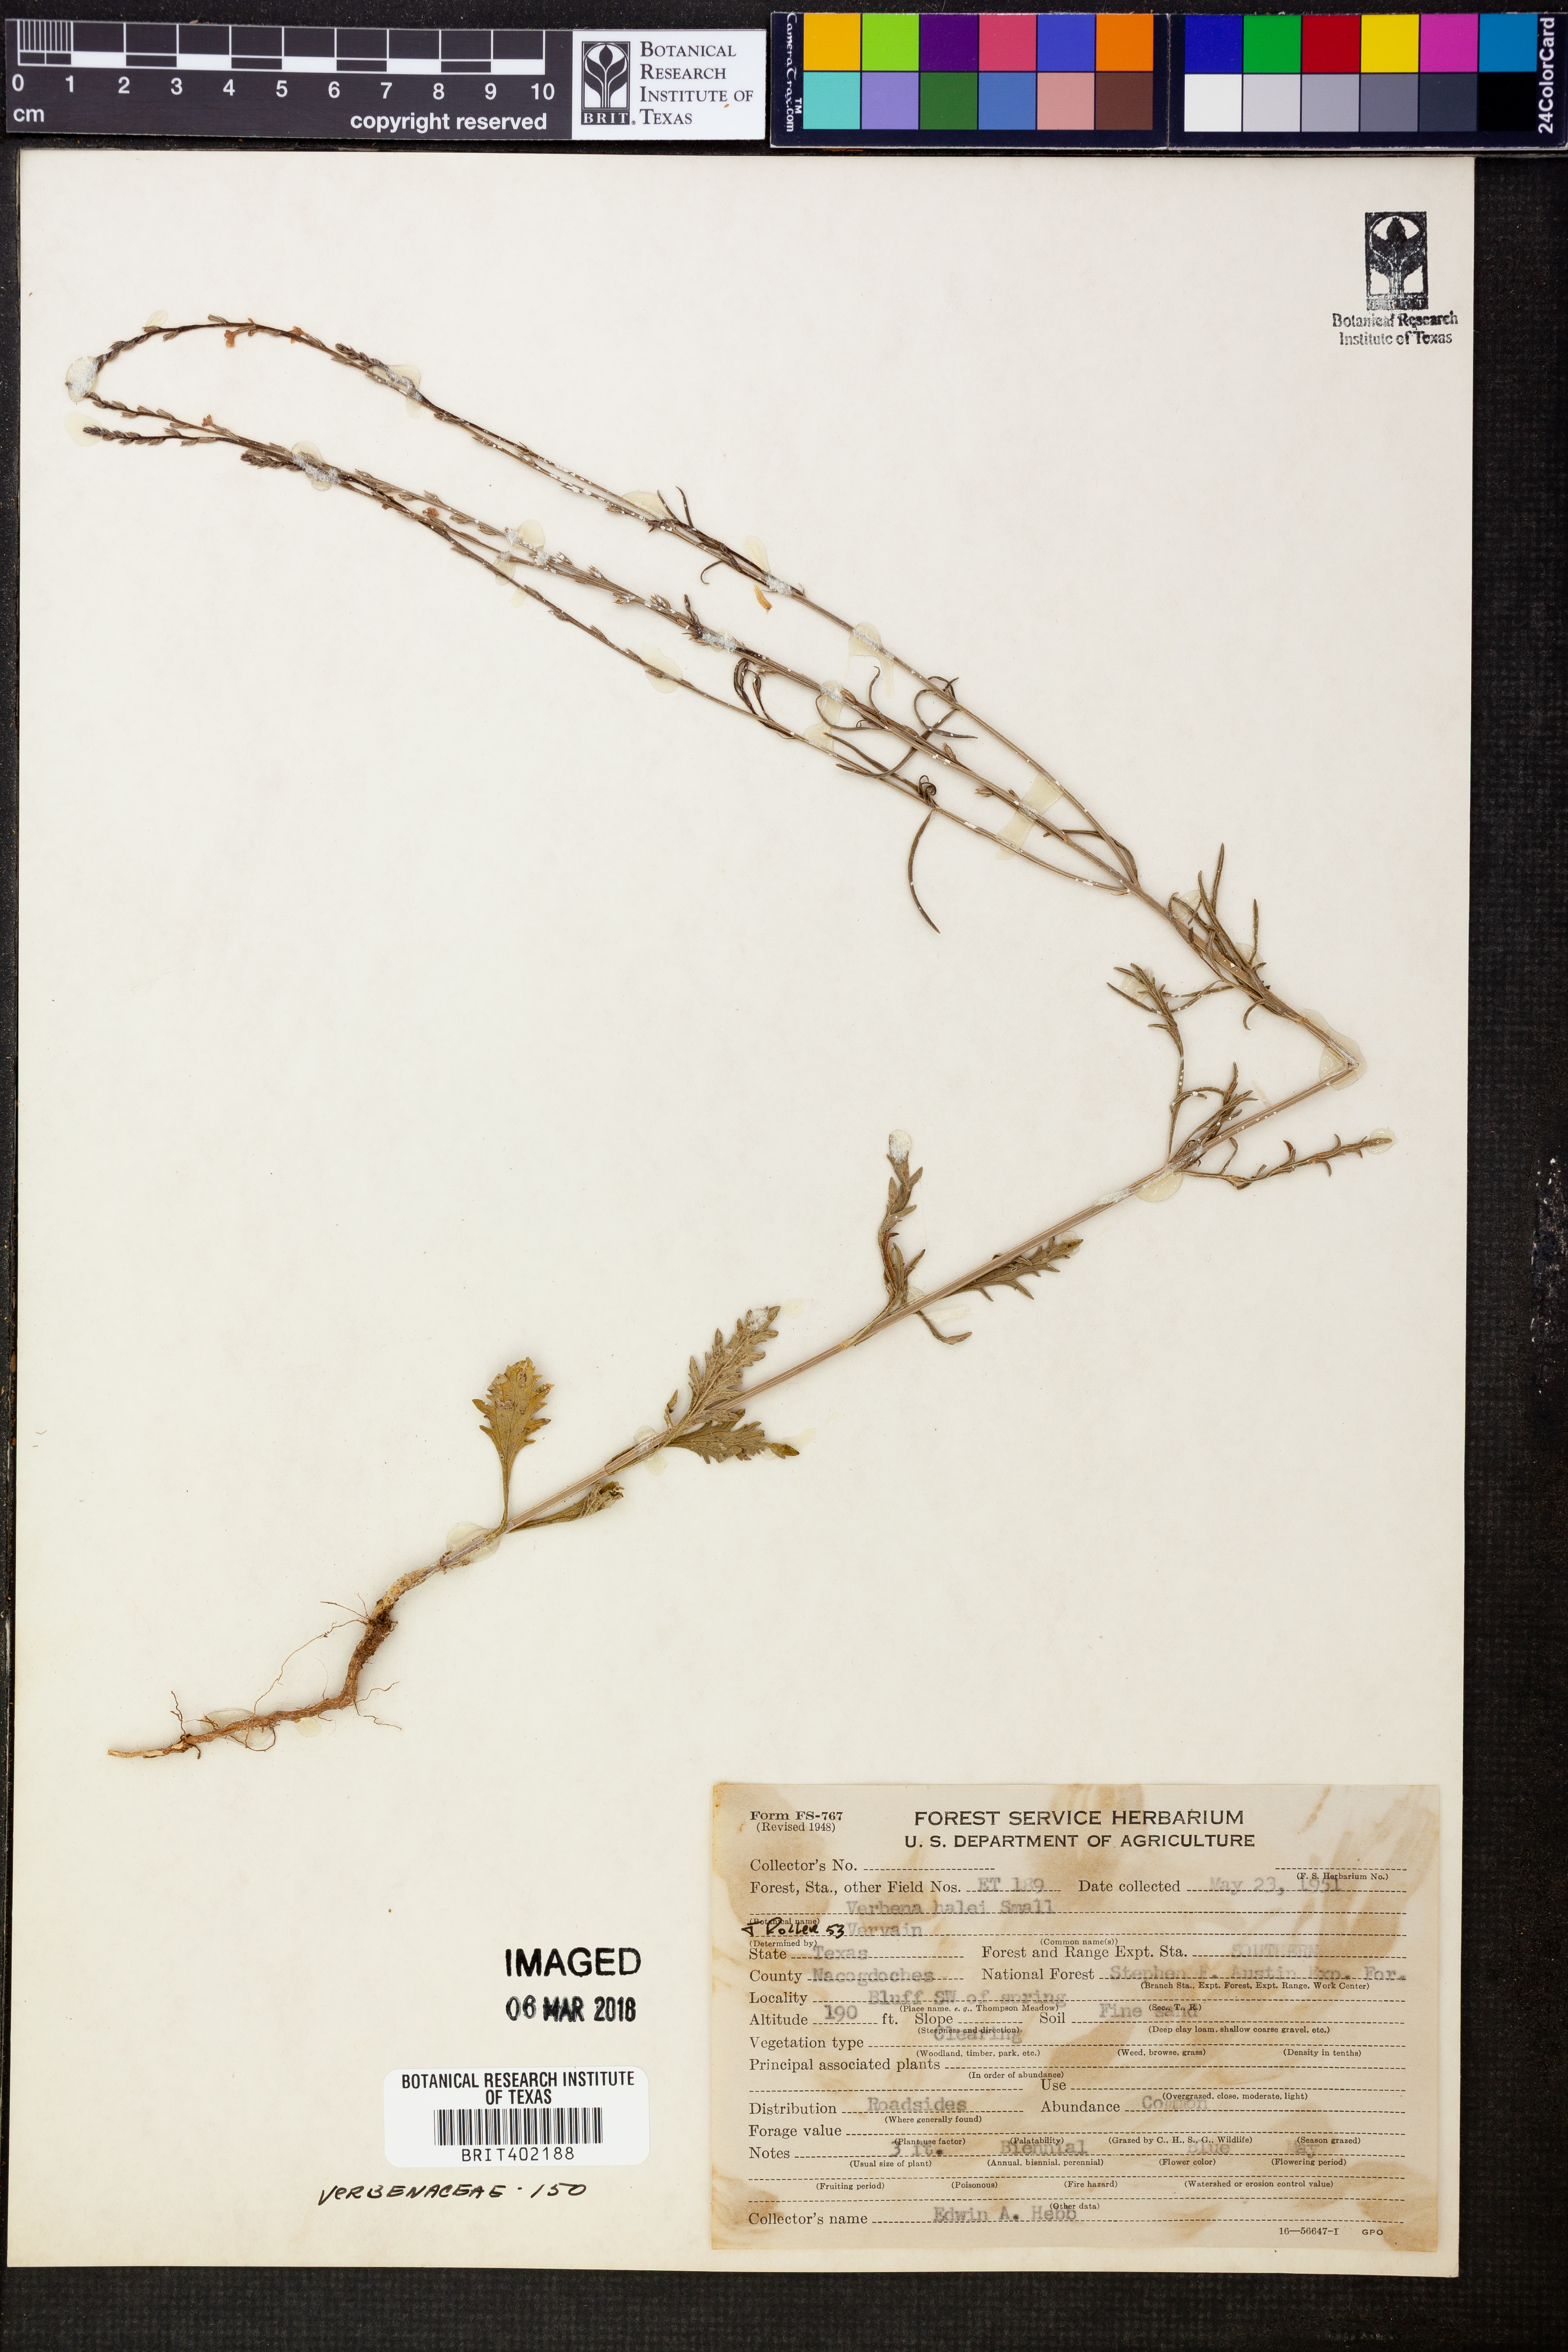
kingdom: Plantae
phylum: Tracheophyta
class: Magnoliopsida
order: Lamiales
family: Verbenaceae
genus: Verbena
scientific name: Verbena halei
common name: Texas vervain
